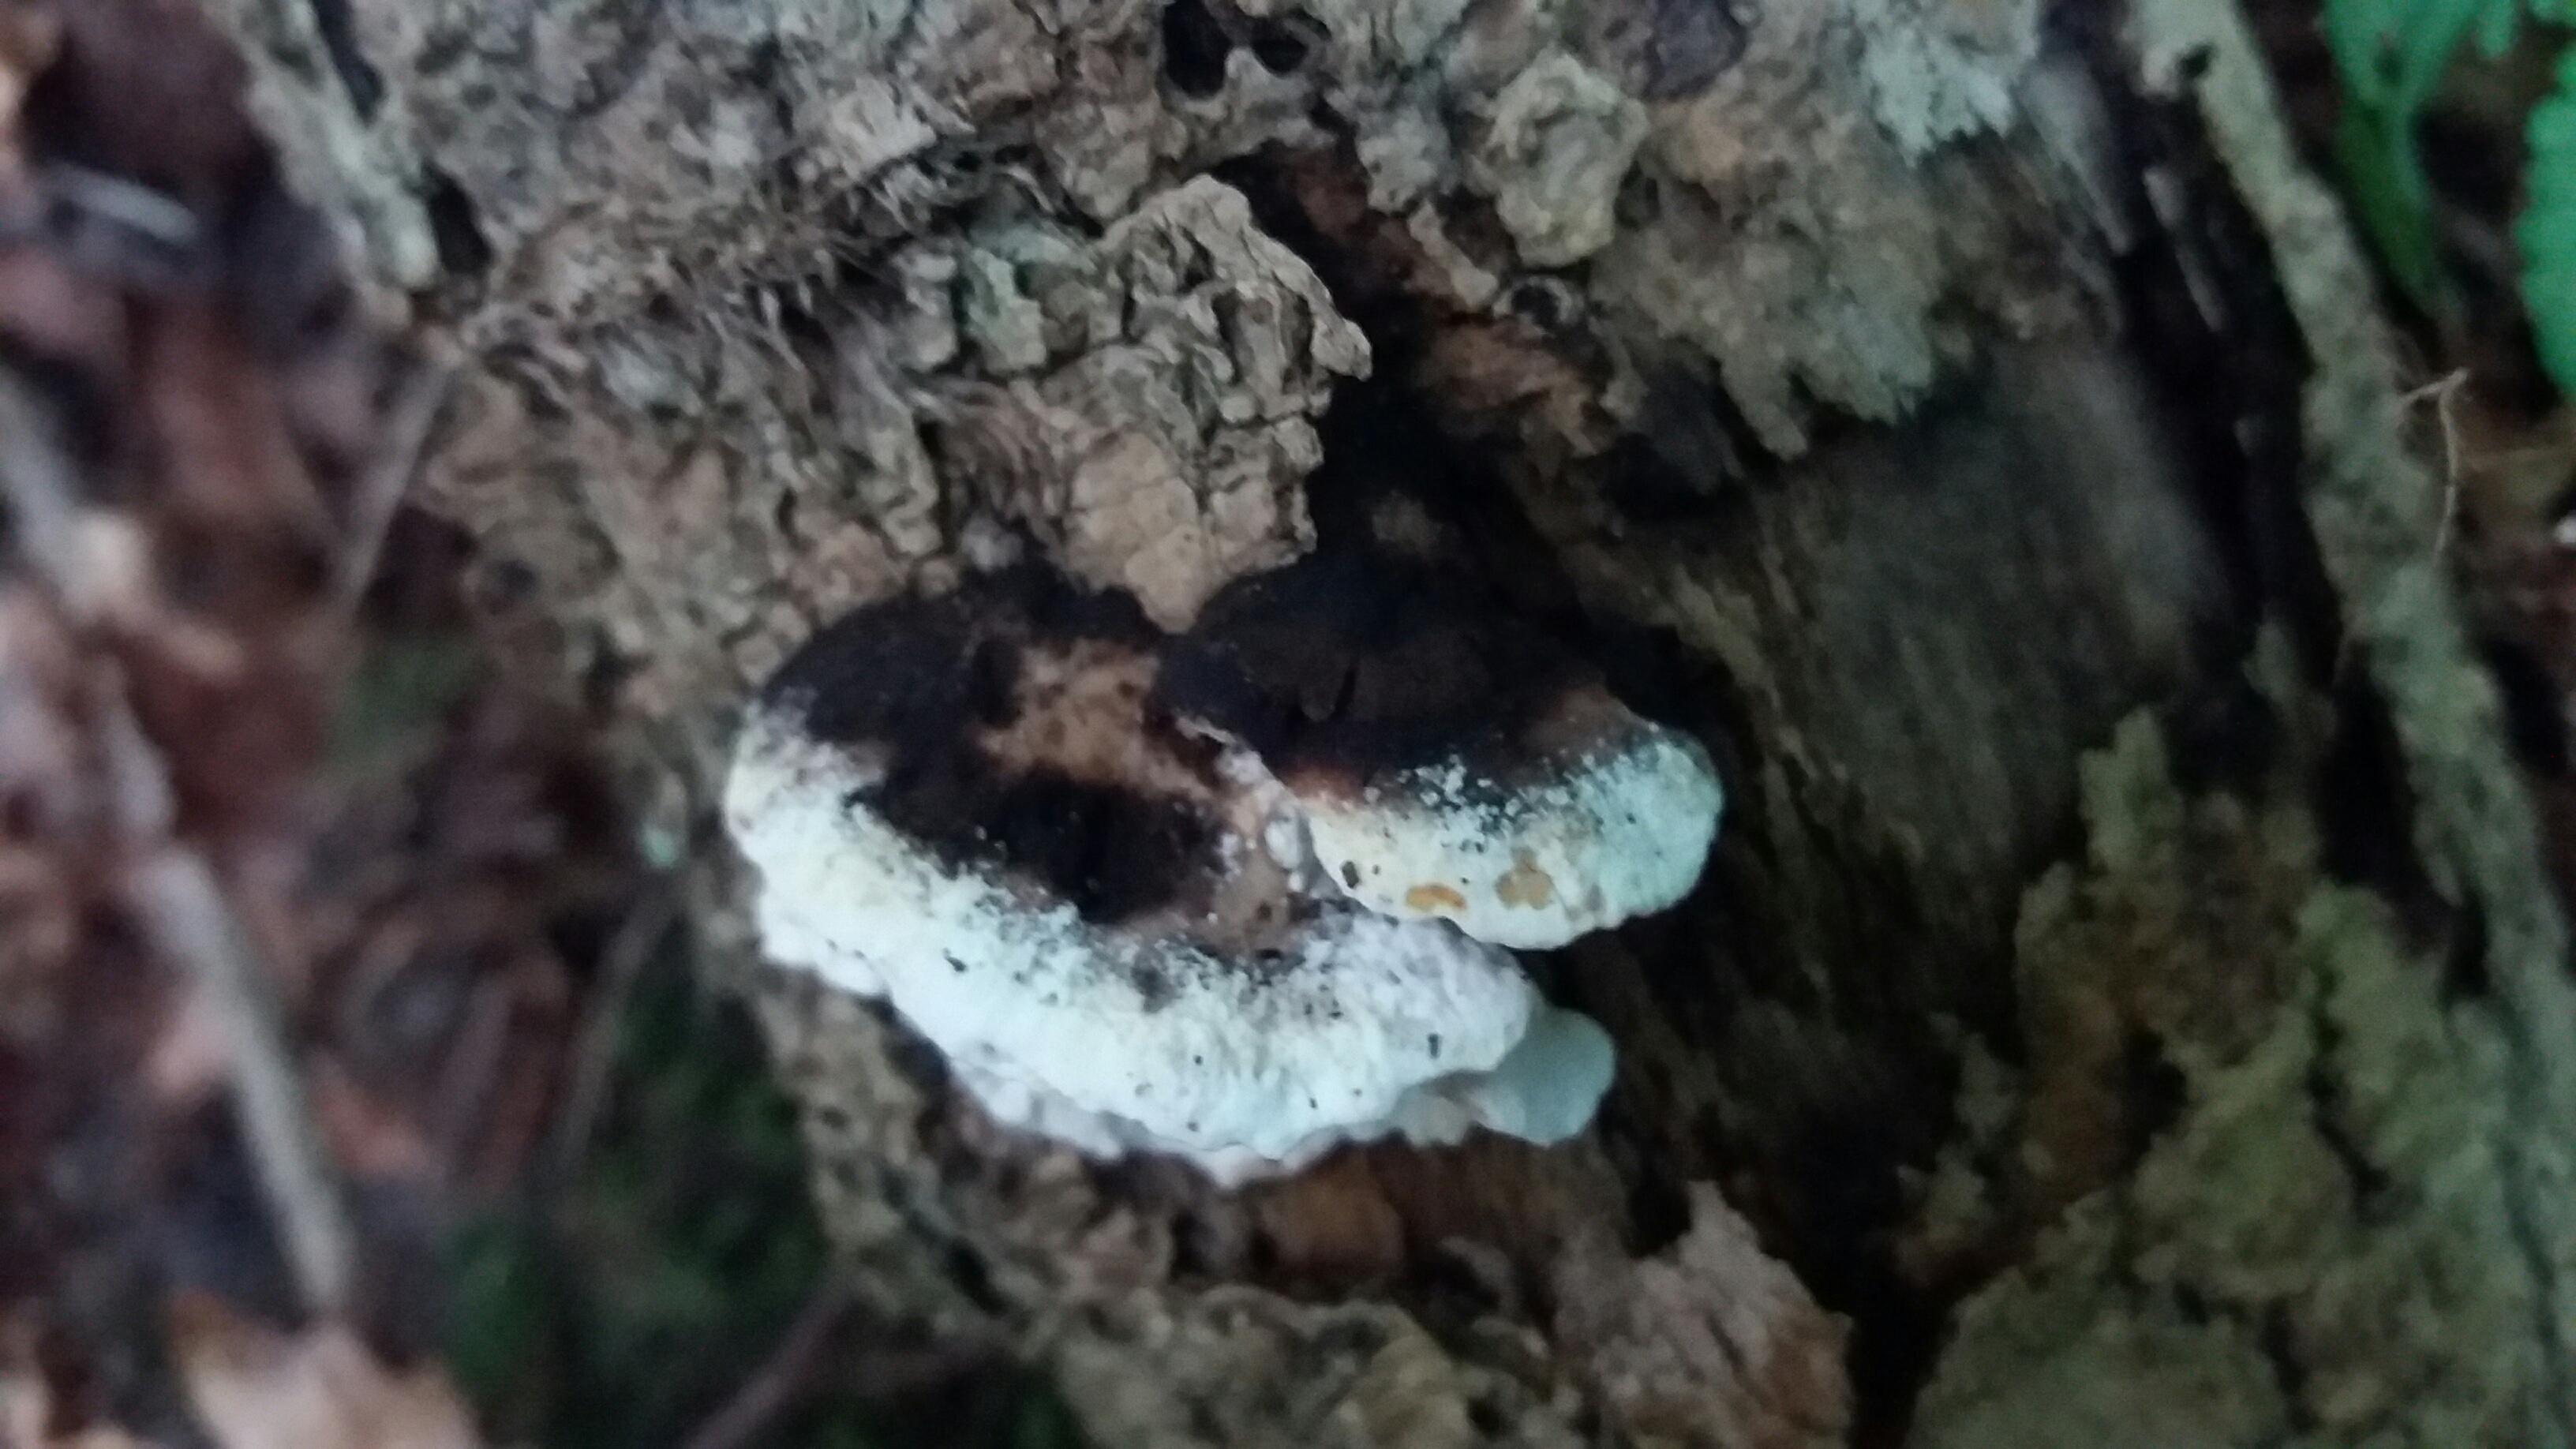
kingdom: Fungi
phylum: Basidiomycota
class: Agaricomycetes
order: Polyporales
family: Incrustoporiaceae
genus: Skeletocutis
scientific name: Skeletocutis nemoralis
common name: stor krystalporesvamp
